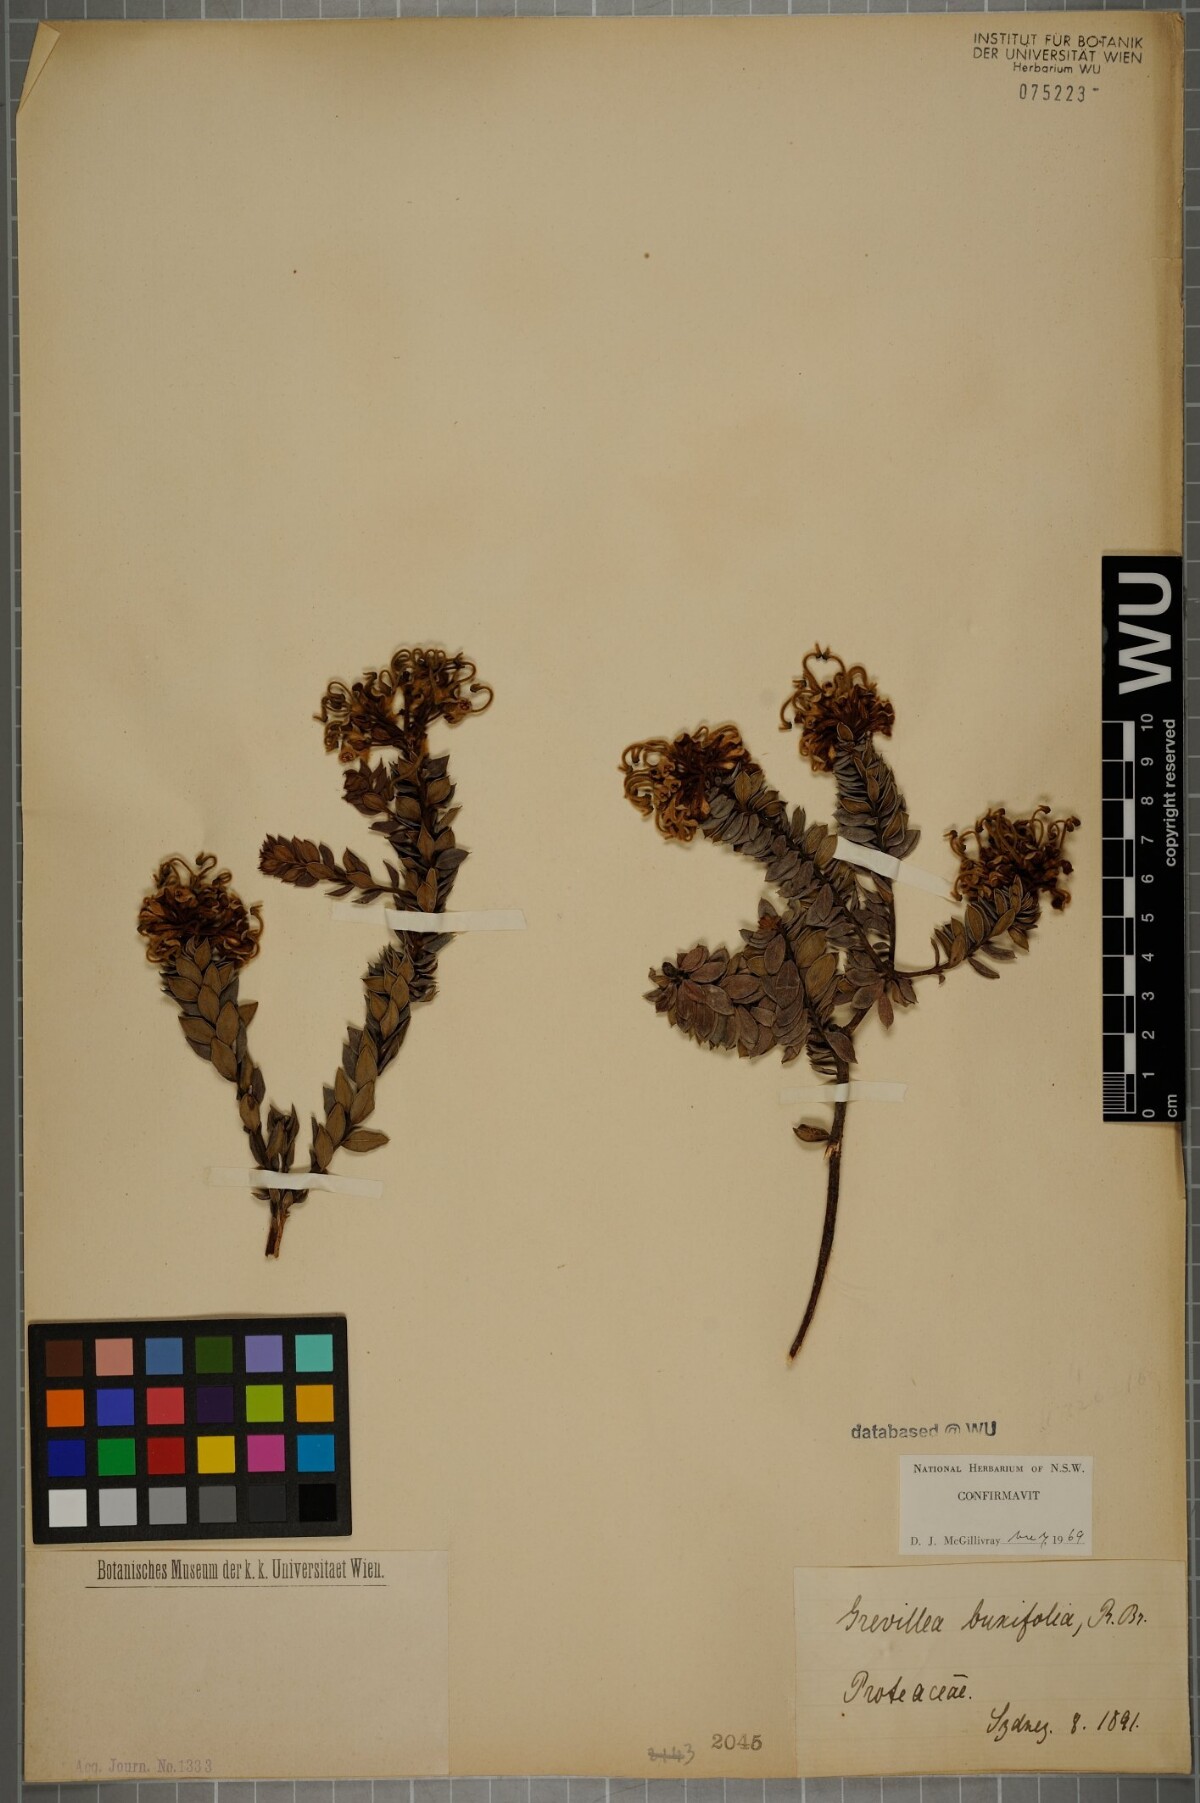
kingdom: Plantae
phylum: Tracheophyta
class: Magnoliopsida
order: Proteales
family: Proteaceae
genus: Grevillea
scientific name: Grevillea buxifolia
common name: Grey spiderflower
